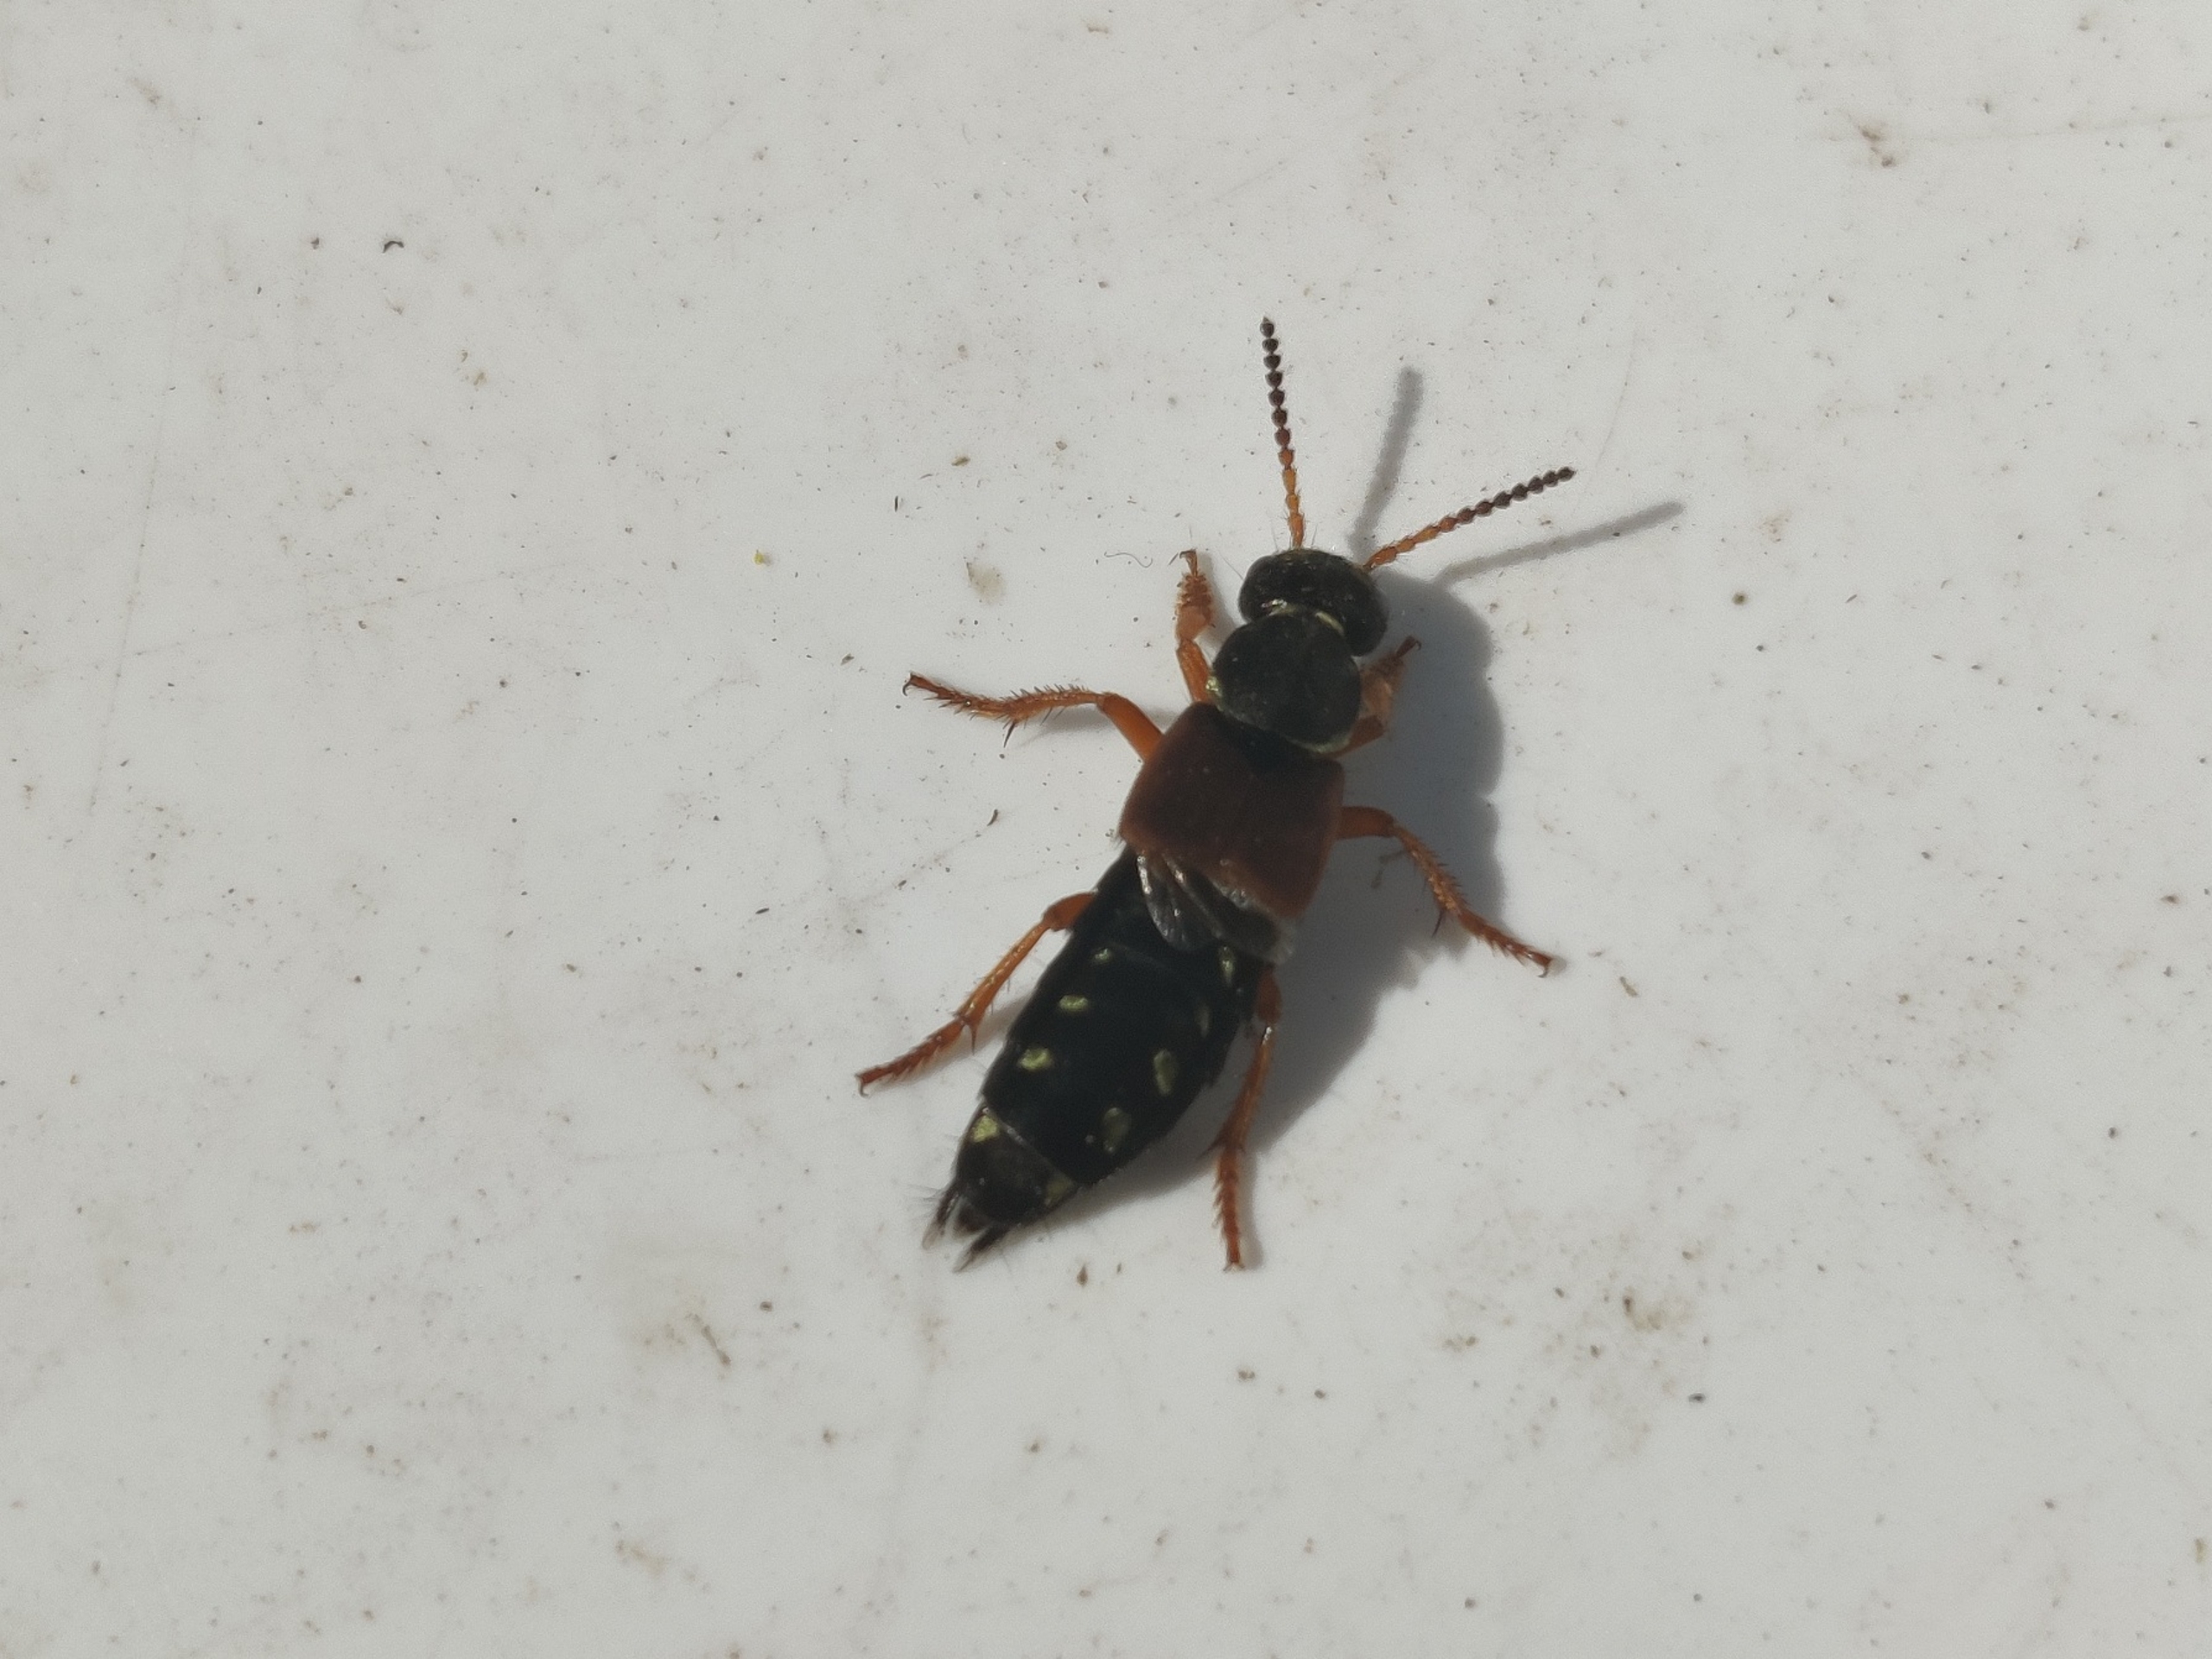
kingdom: Animalia
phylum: Arthropoda
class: Insecta
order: Coleoptera
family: Staphylinidae
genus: Staphylinus
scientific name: Staphylinus dimidiaticornis
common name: Sortkindet kejserrovbille
